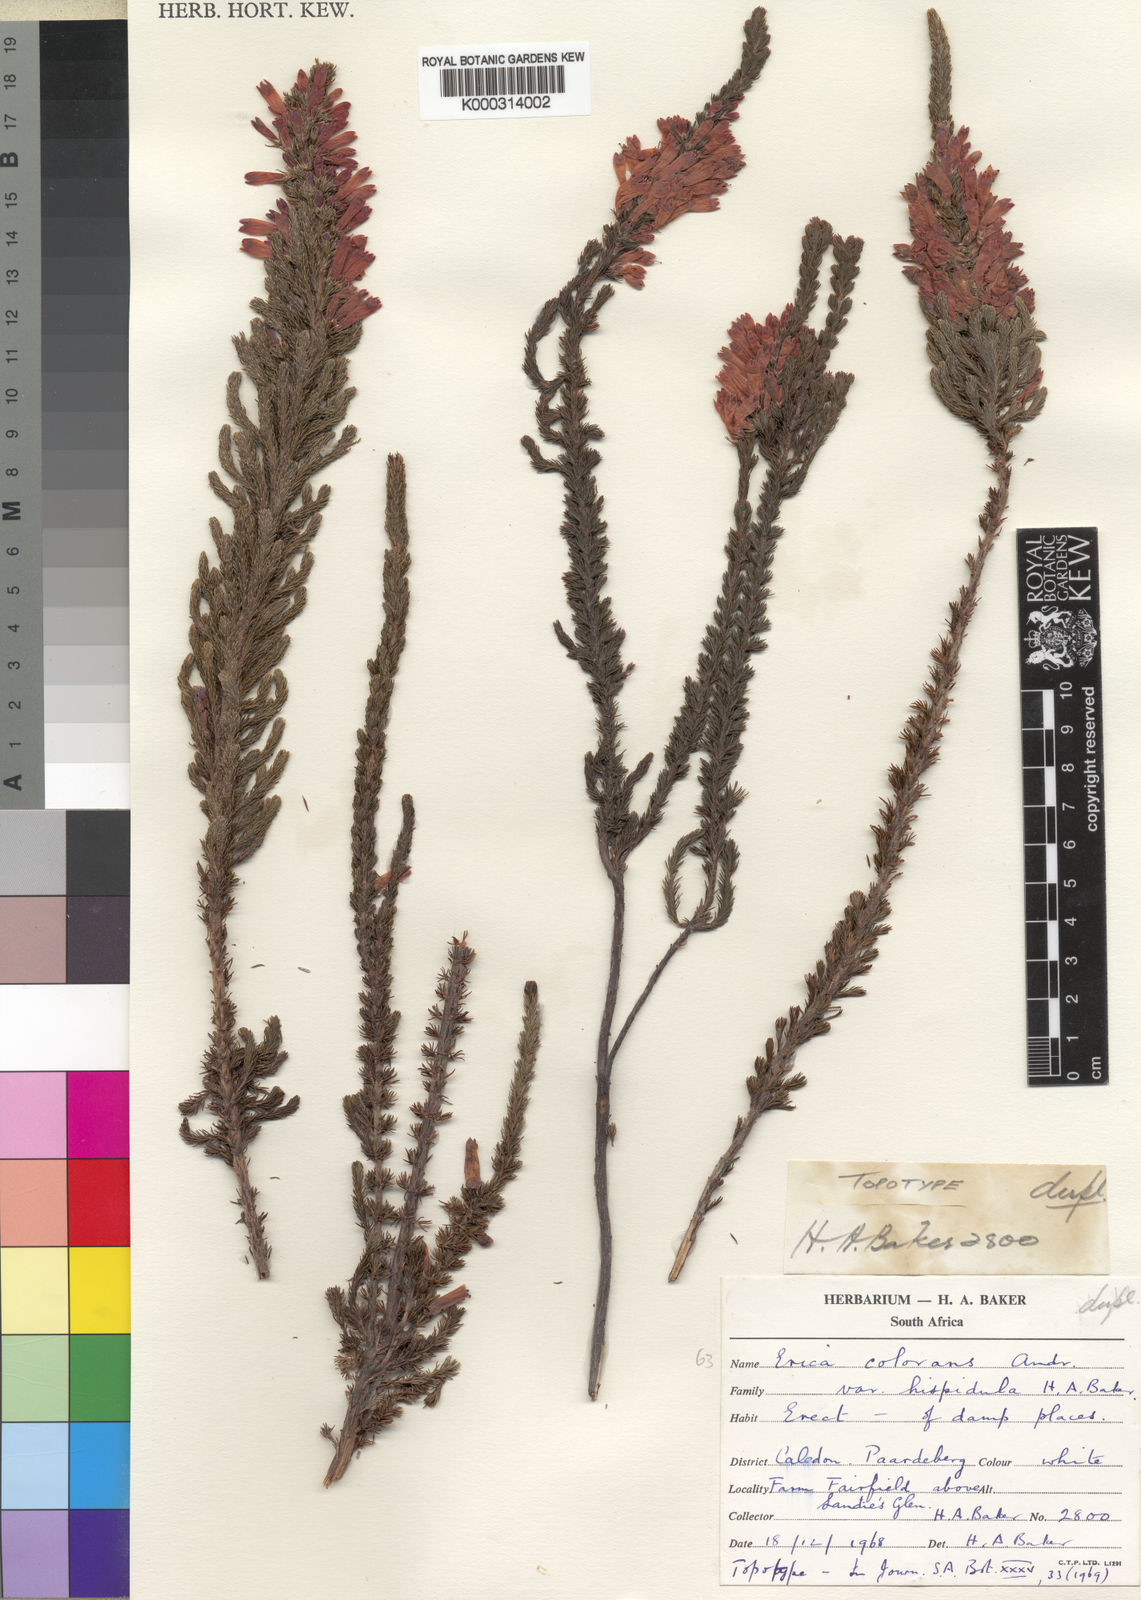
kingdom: Plantae
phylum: Tracheophyta
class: Magnoliopsida
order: Ericales
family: Ericaceae
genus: Erica
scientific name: Erica colorans
